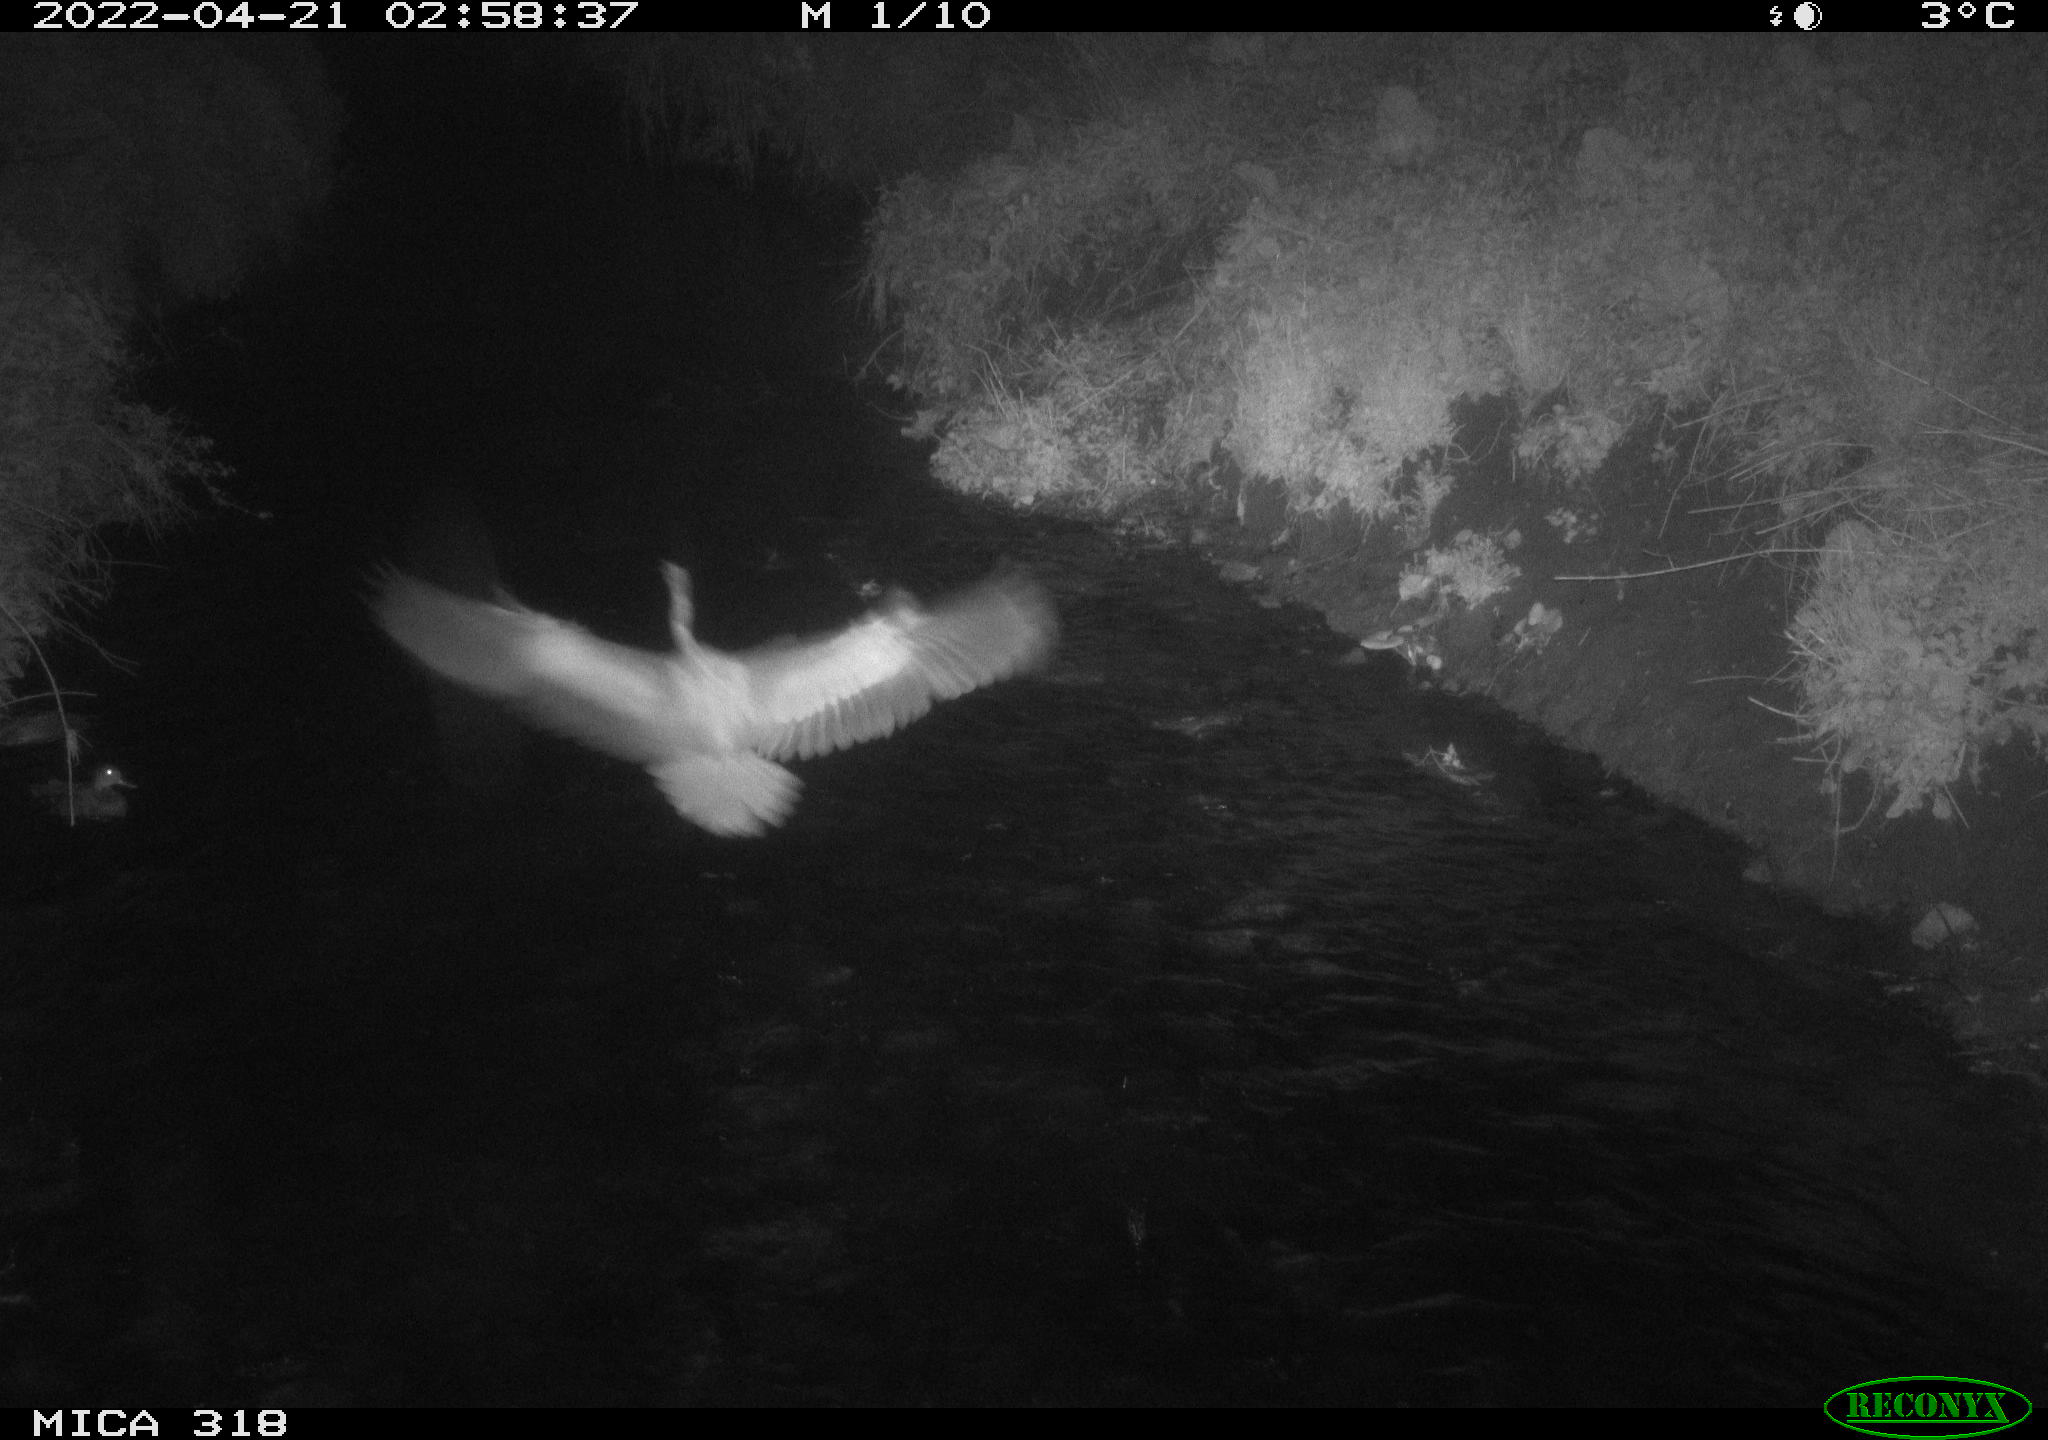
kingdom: Animalia
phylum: Chordata
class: Aves
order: Anseriformes
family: Anatidae
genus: Anas
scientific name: Anas platyrhynchos
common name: Mallard
